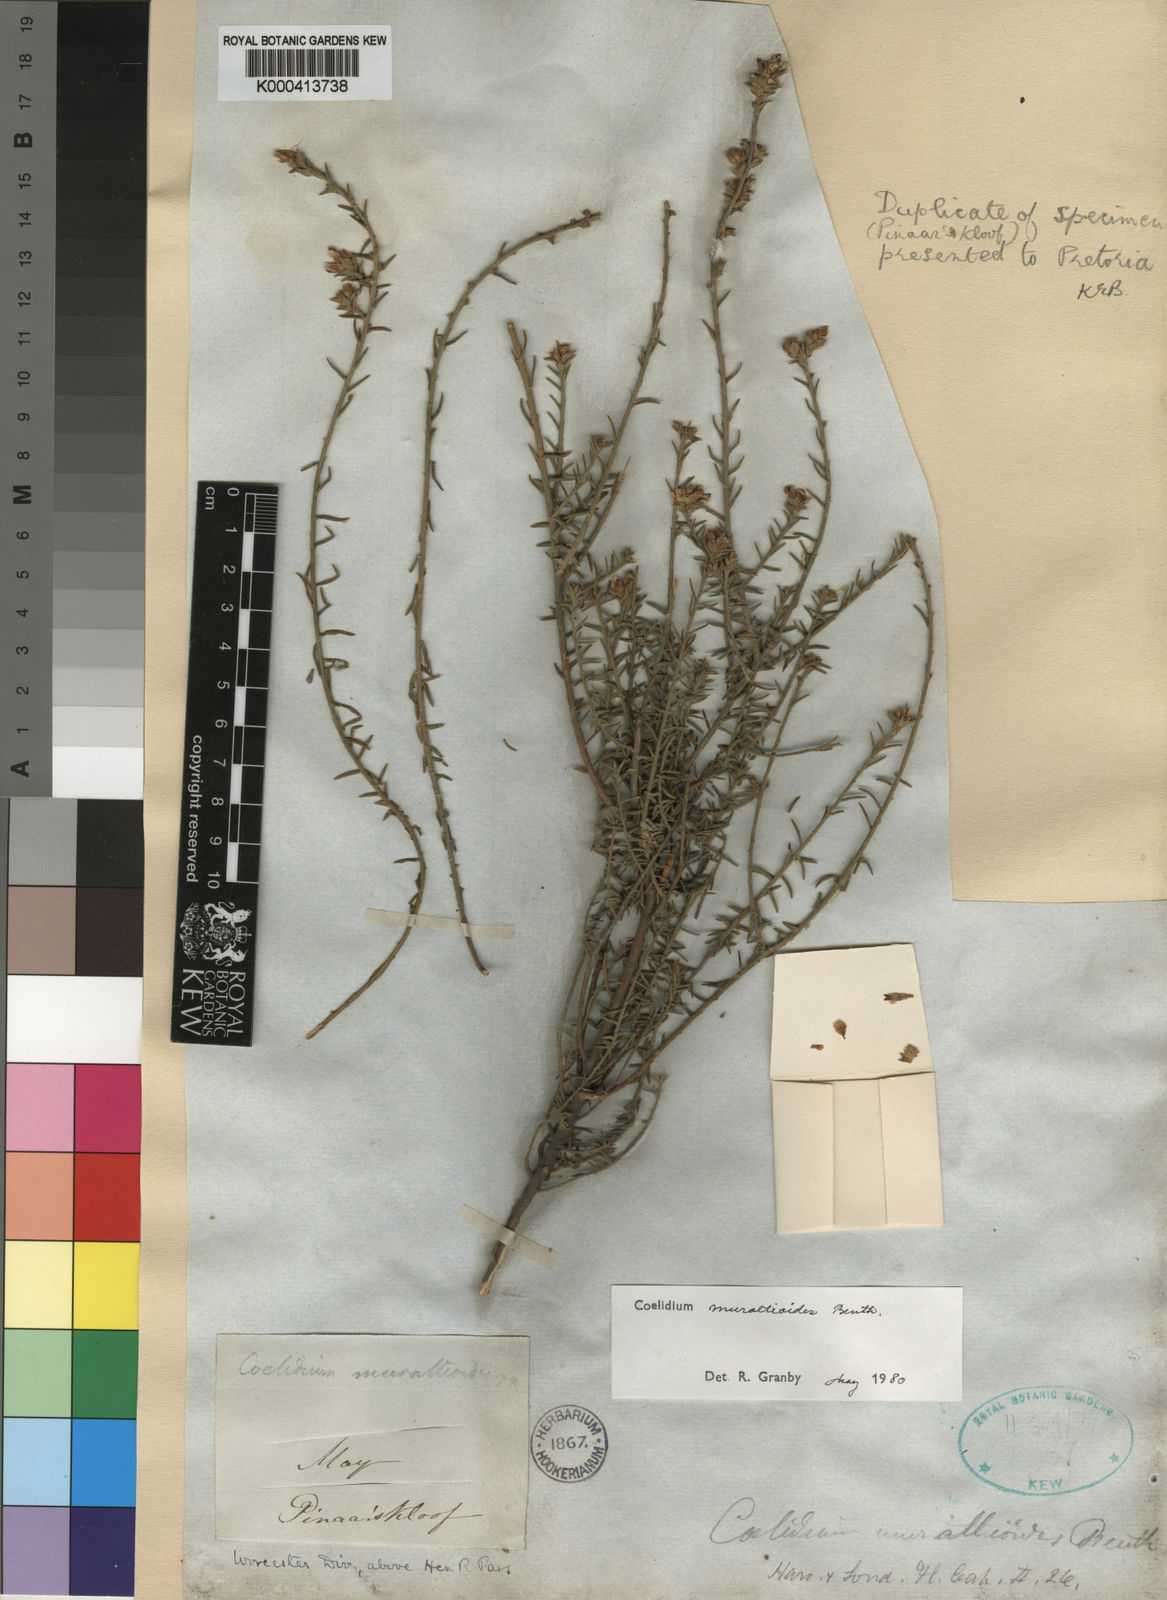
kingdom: Plantae
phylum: Tracheophyta
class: Magnoliopsida
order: Fabales
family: Fabaceae
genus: Amphithalea
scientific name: Amphithalea muraltioides
